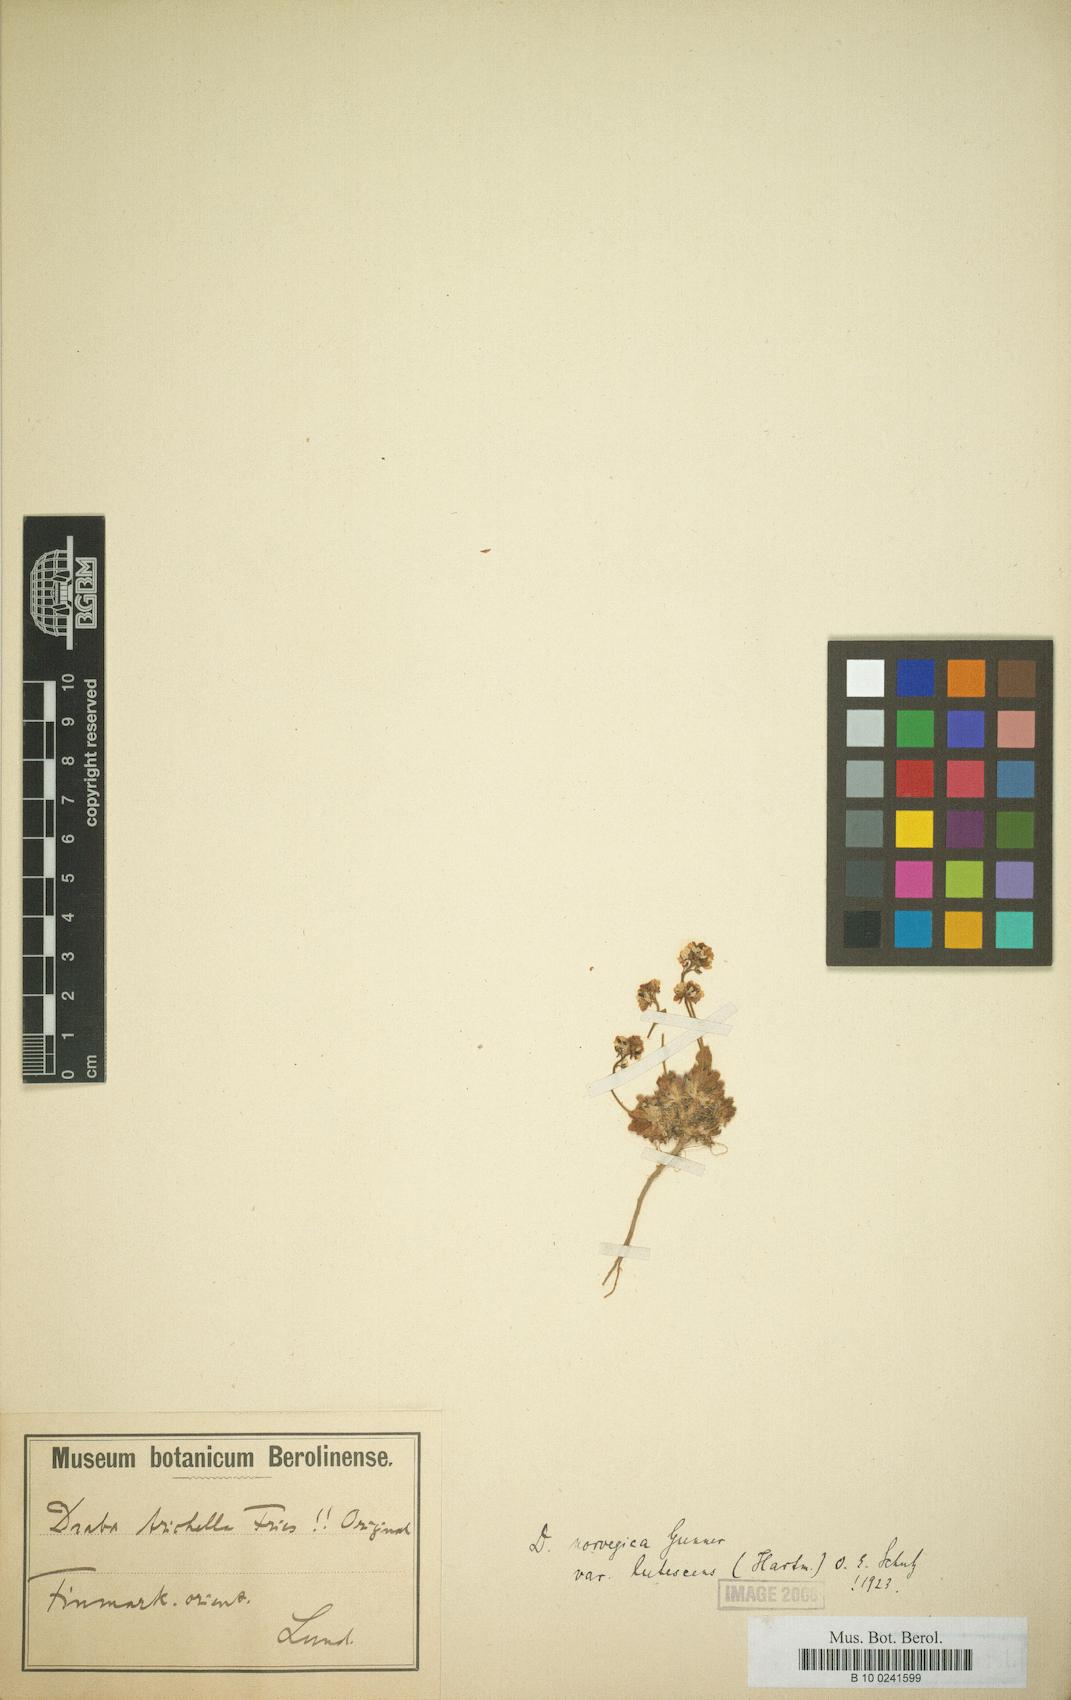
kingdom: Plantae
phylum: Tracheophyta
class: Magnoliopsida
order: Brassicales
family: Brassicaceae
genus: Draba
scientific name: Draba norvegica
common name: Rock whitlowgrass
